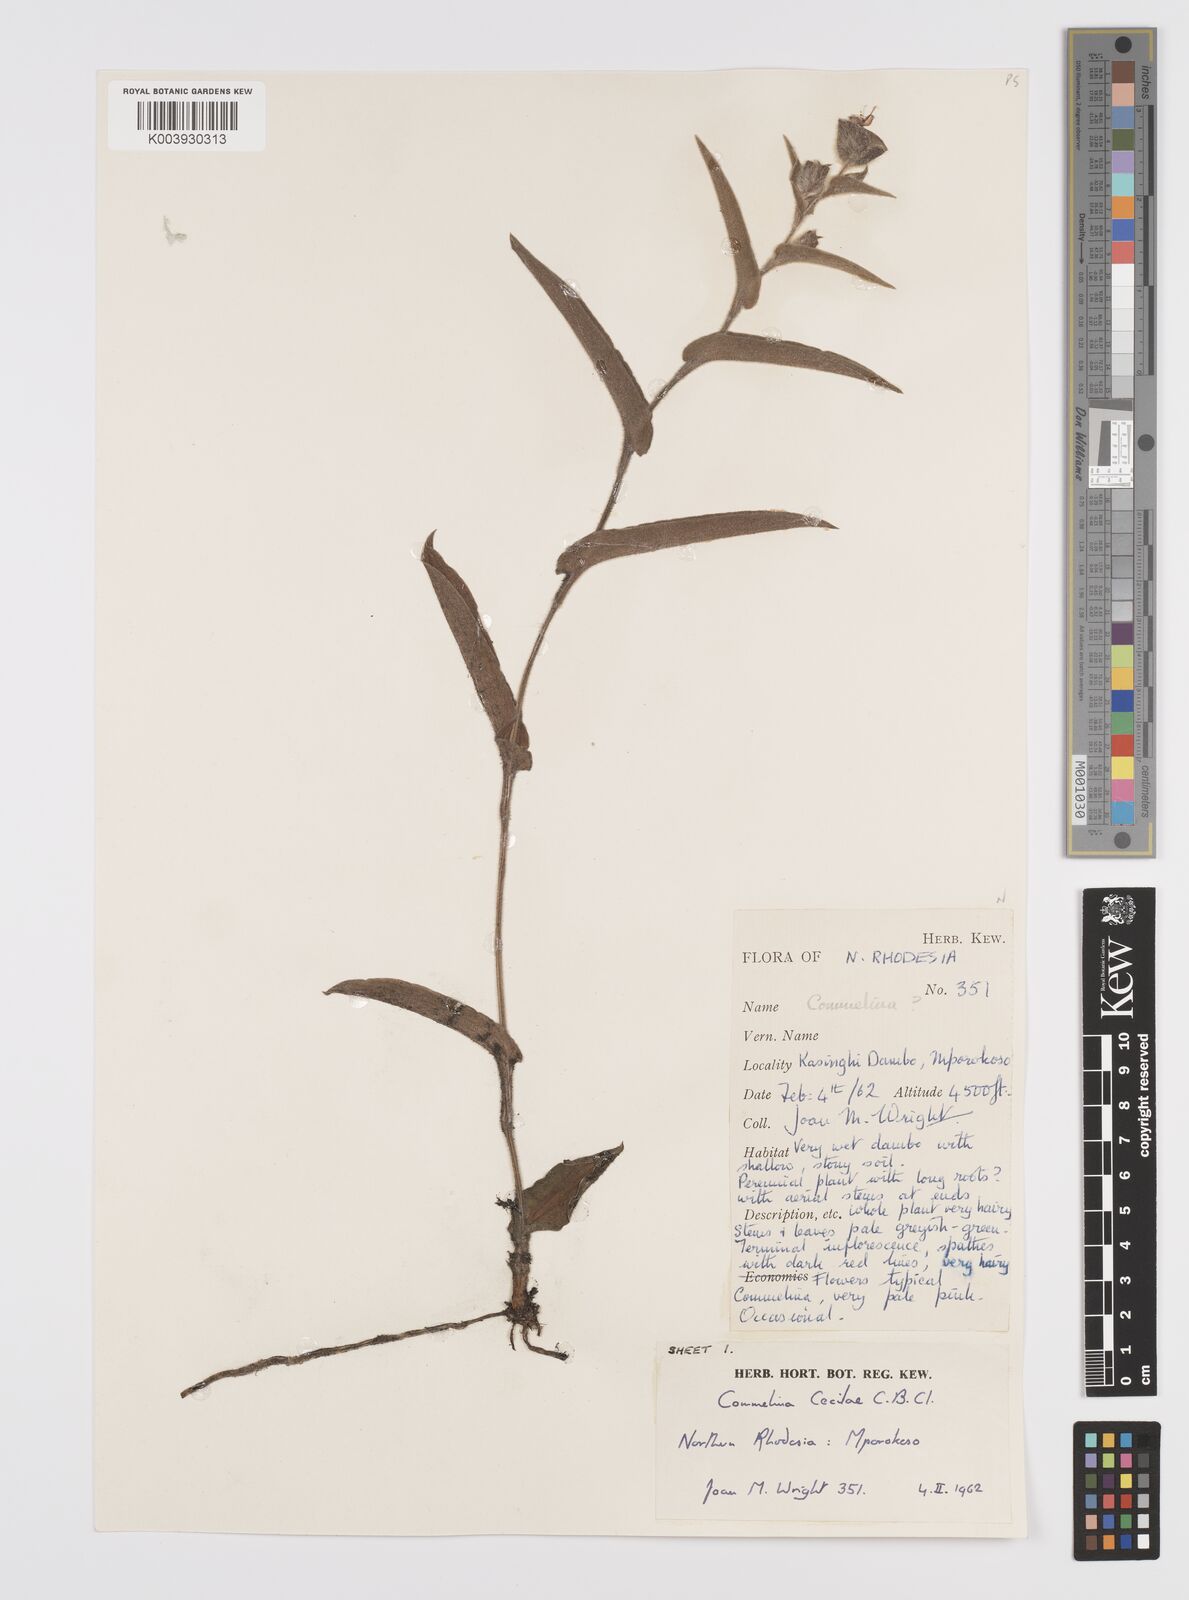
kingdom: Plantae
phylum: Tracheophyta
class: Liliopsida
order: Commelinales
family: Commelinaceae
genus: Commelina
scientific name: Commelina cecilae
